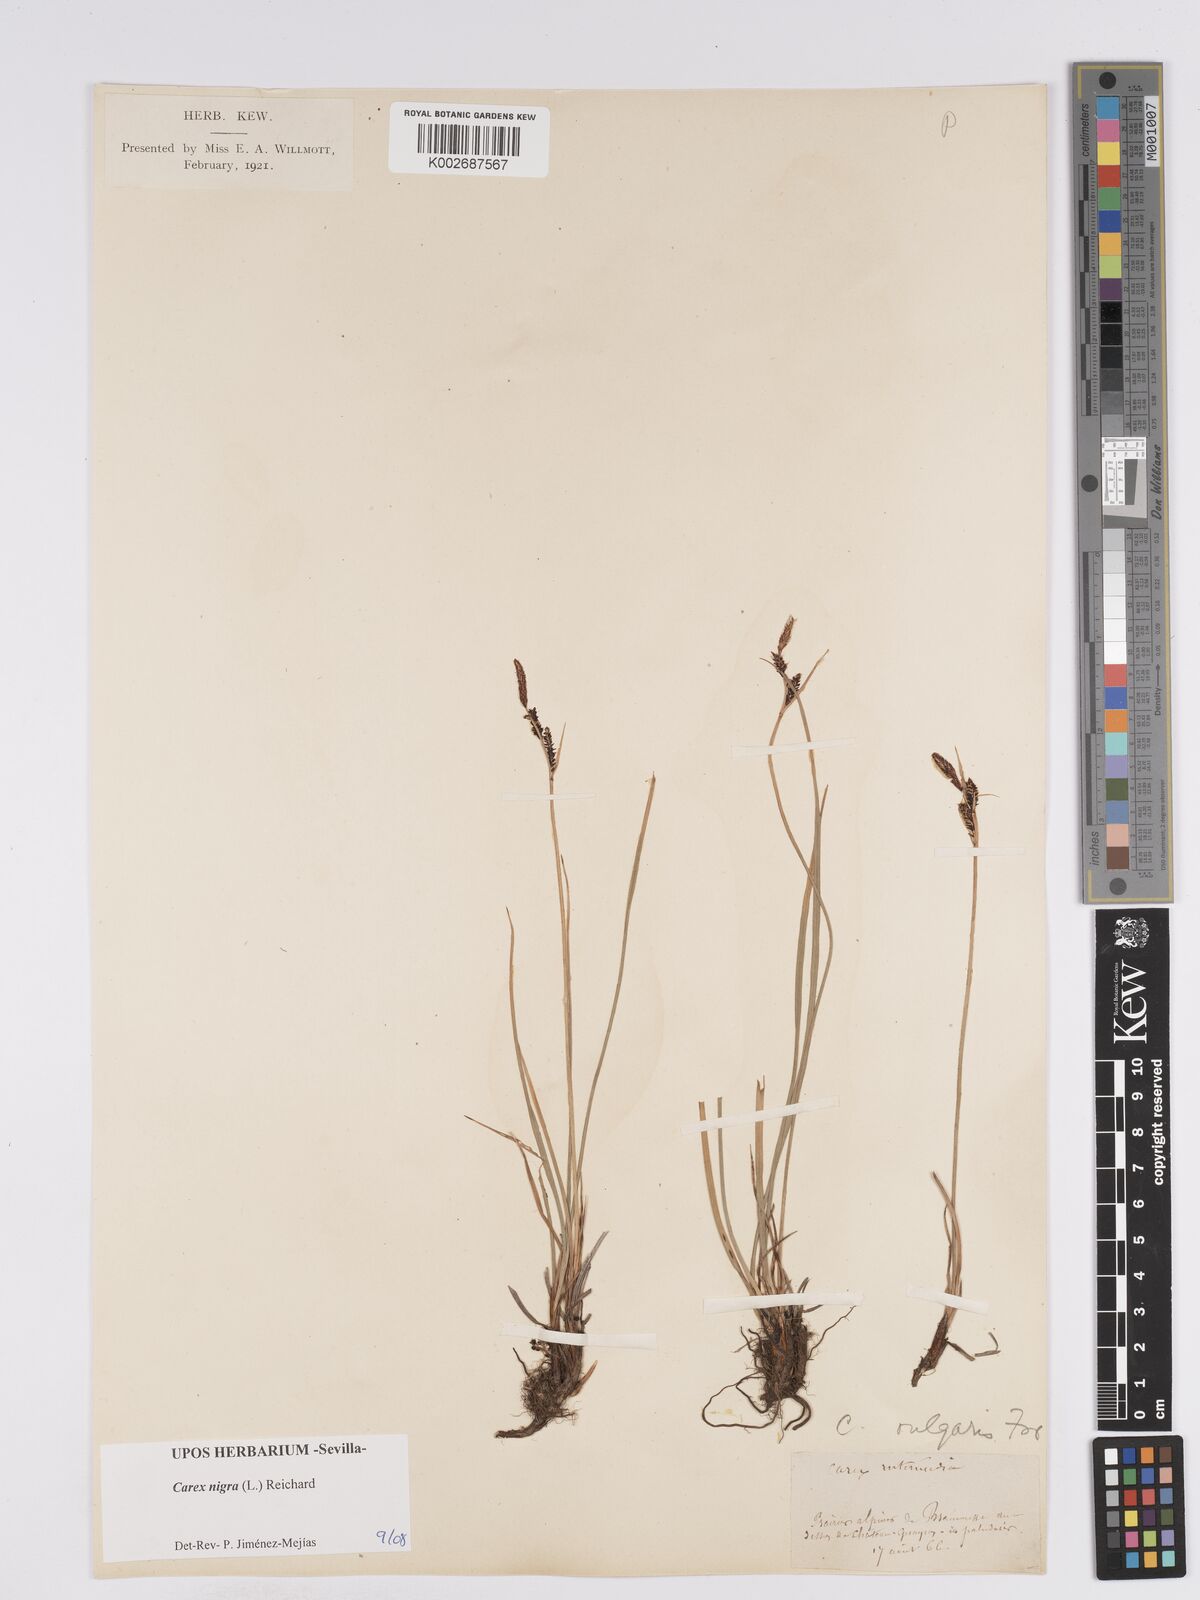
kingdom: Plantae
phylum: Tracheophyta
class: Liliopsida
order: Poales
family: Cyperaceae
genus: Carex
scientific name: Carex nigra
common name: Common sedge
